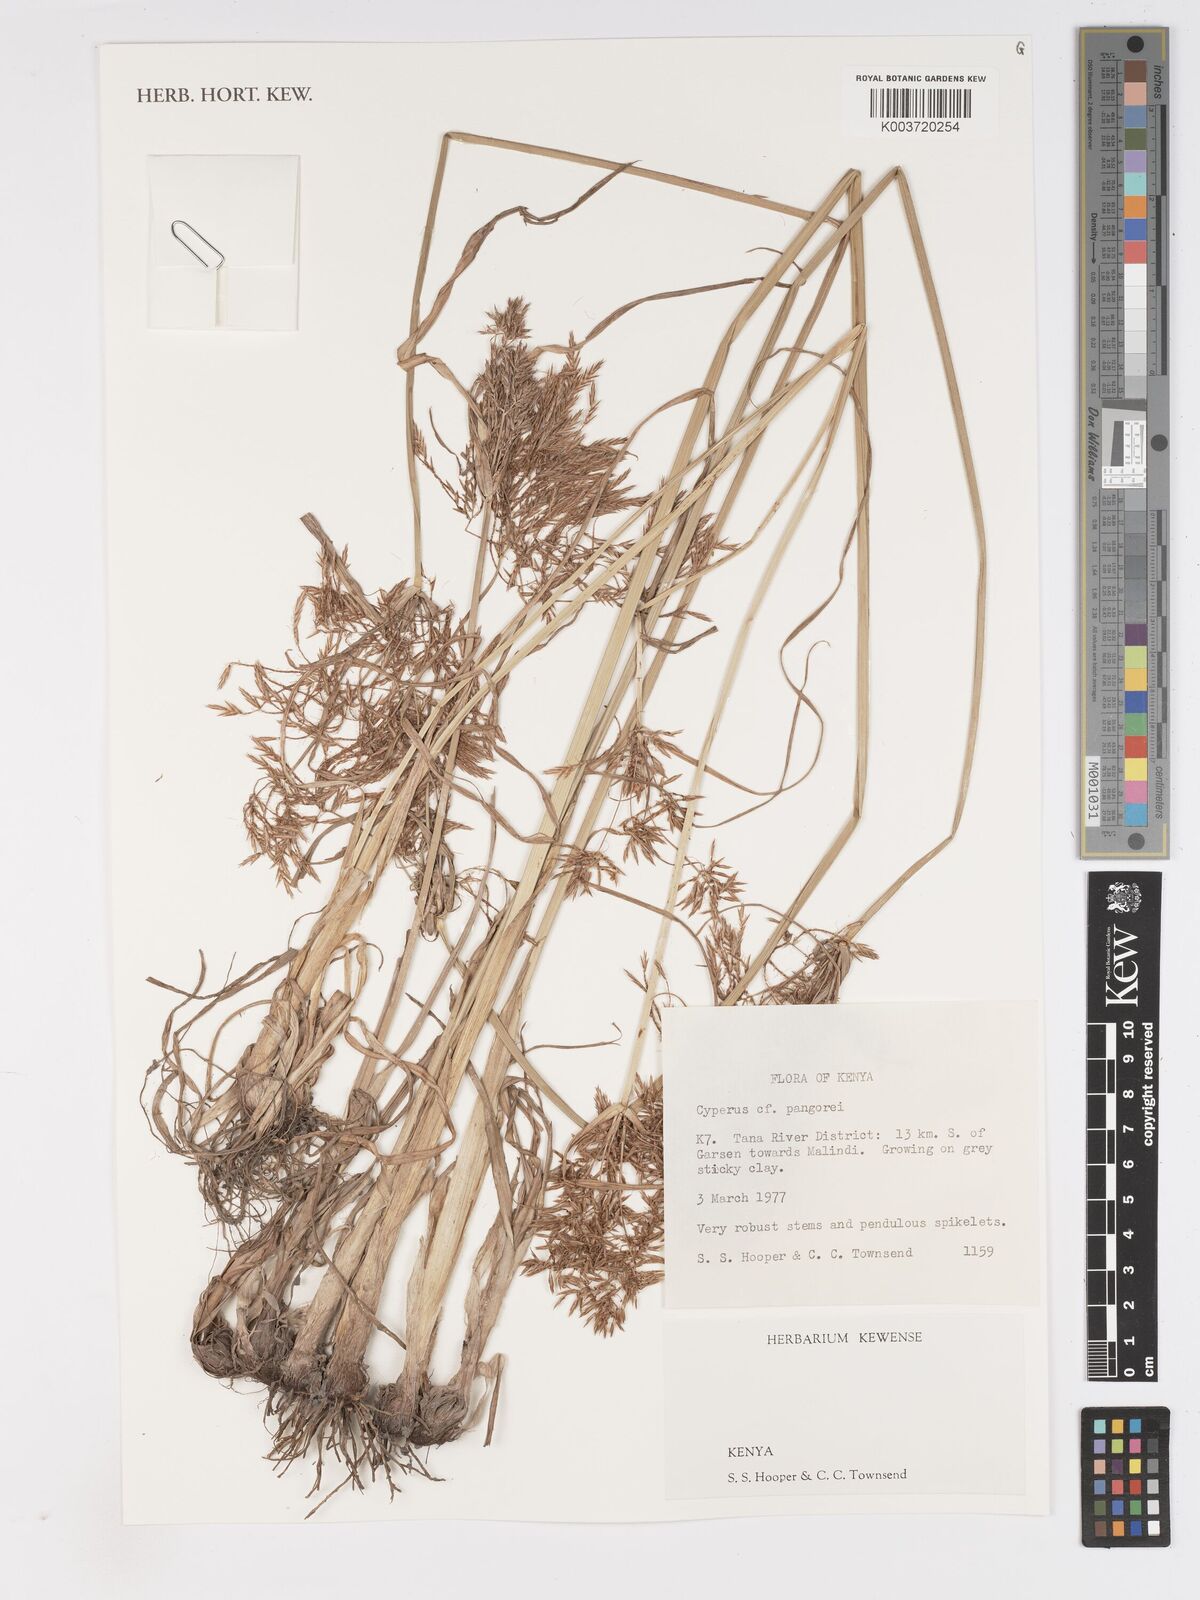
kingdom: Plantae
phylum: Tracheophyta
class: Liliopsida
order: Poales
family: Cyperaceae
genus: Cyperus
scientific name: Cyperus pangorei
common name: Mat sedge
